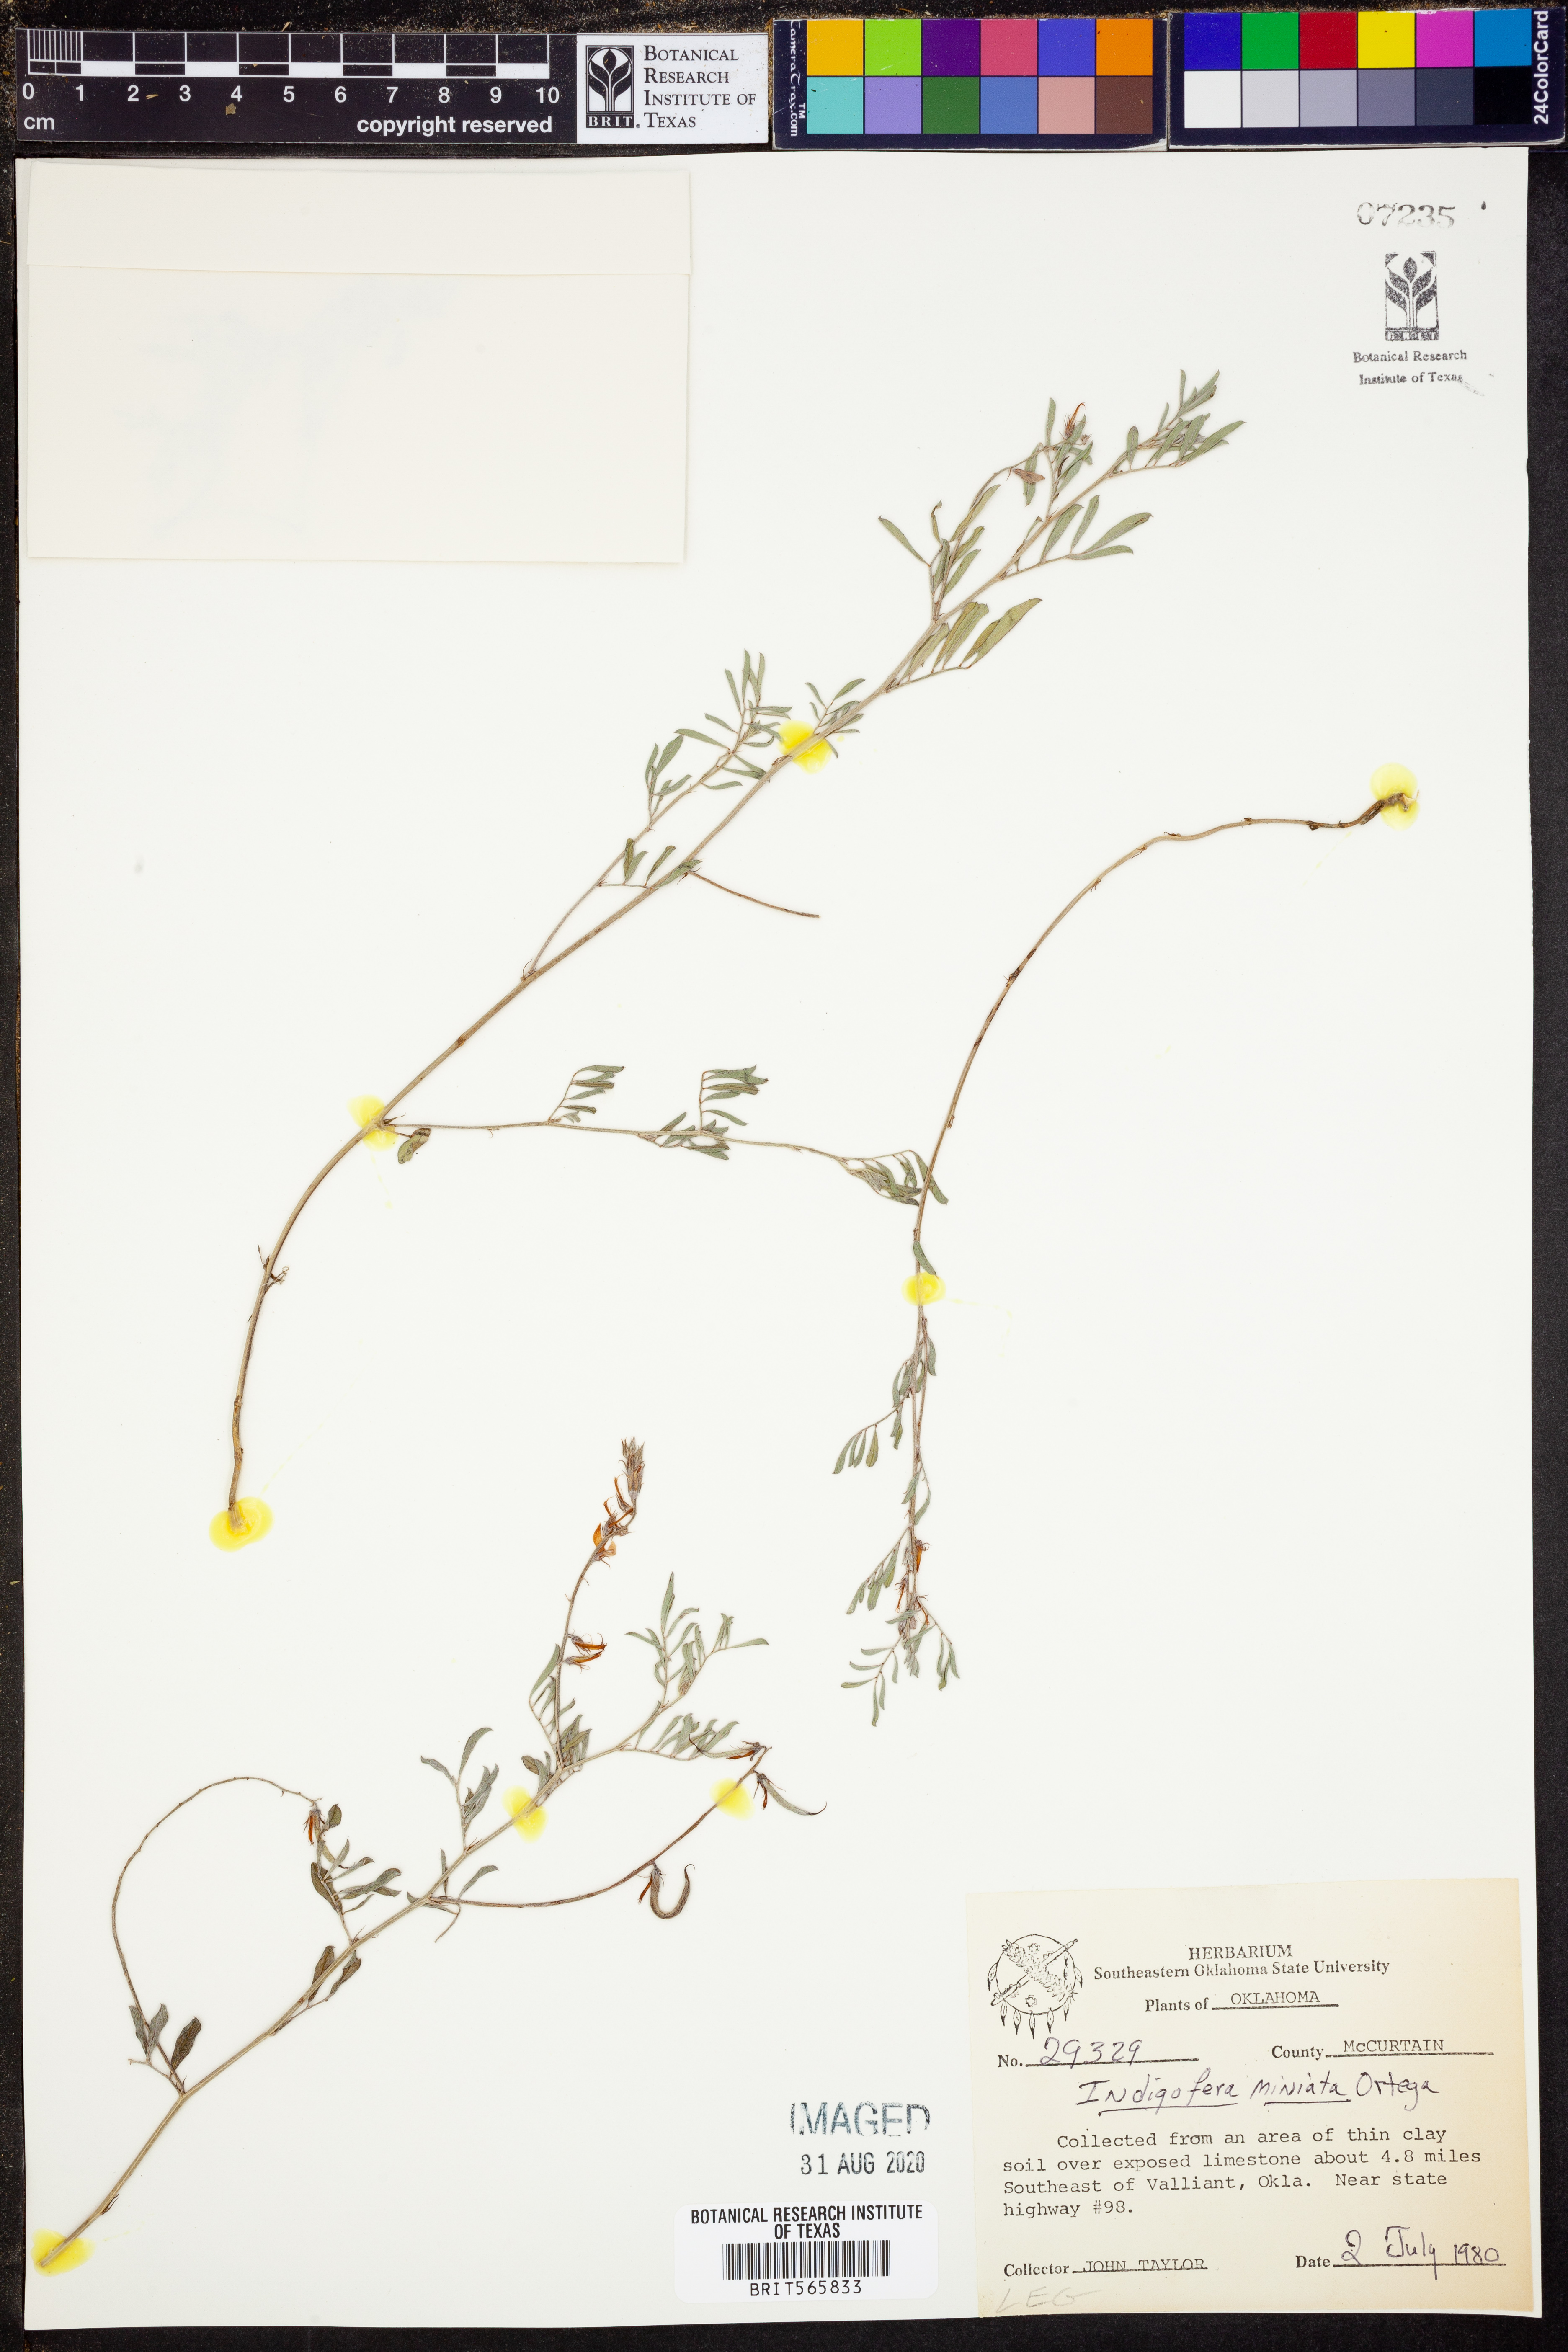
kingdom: Plantae
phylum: Tracheophyta
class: Magnoliopsida
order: Fabales
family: Fabaceae
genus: Indigofera
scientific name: Indigofera miniata
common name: Coast indigo
